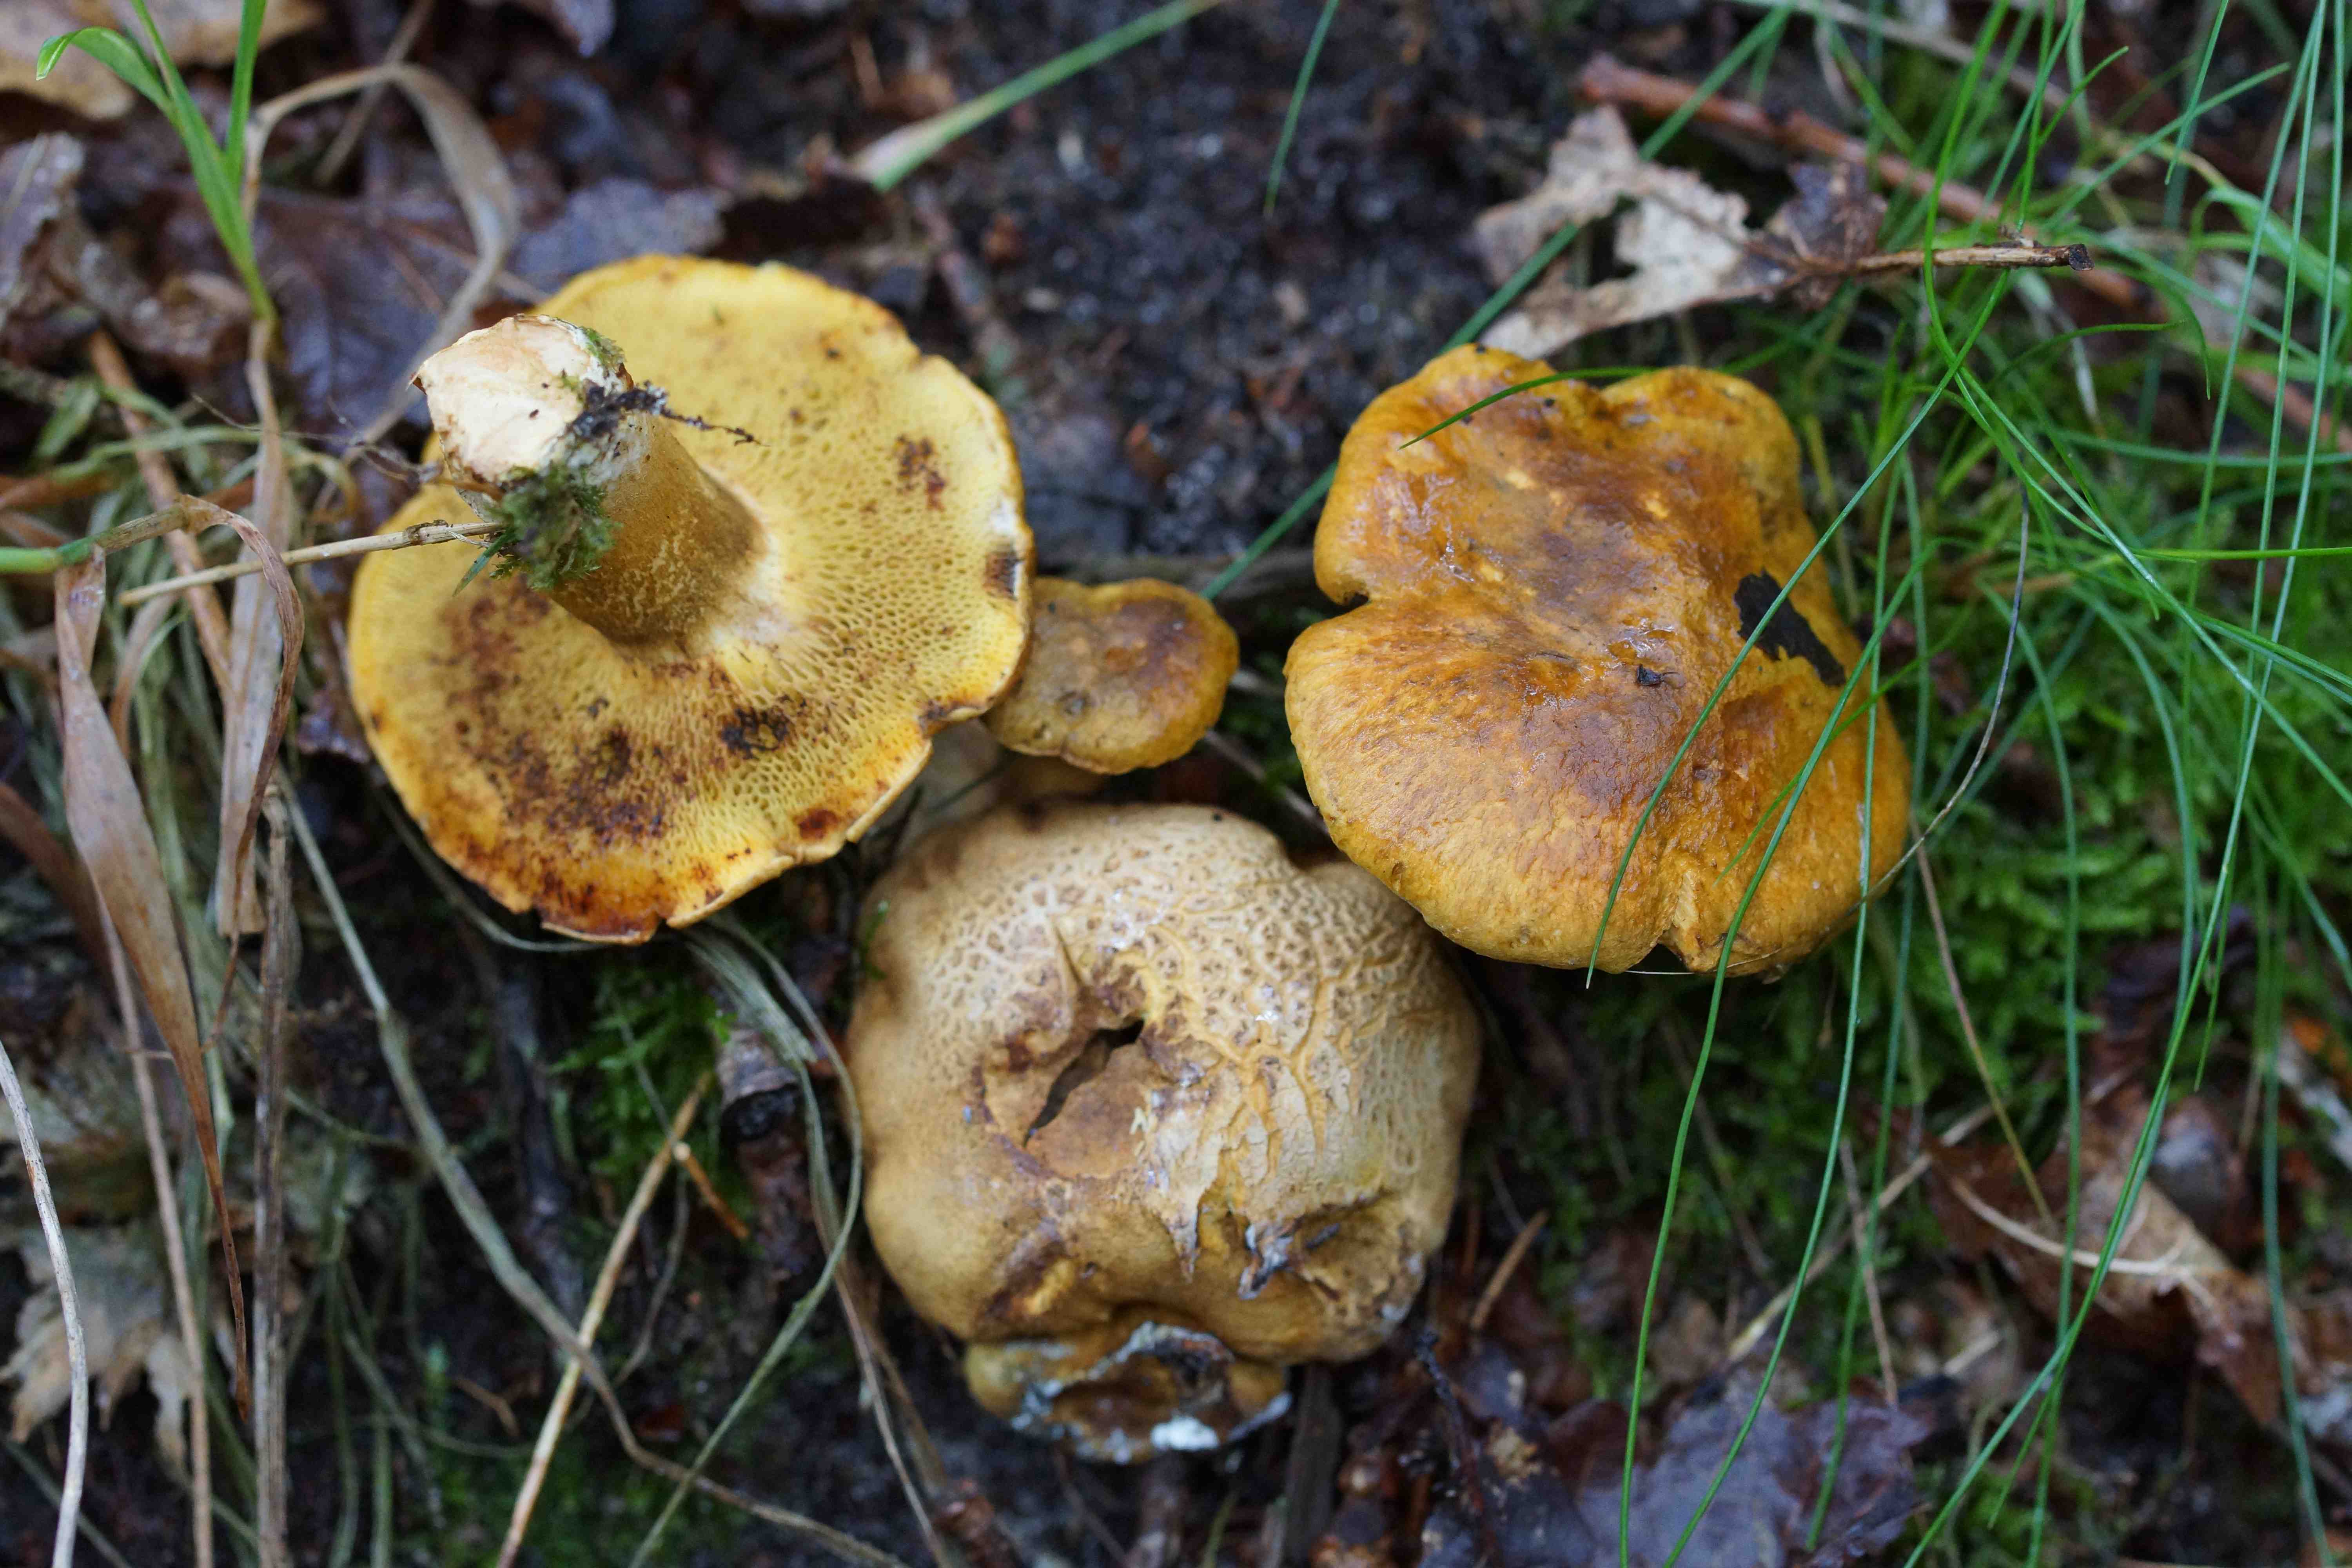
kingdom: Fungi
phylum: Basidiomycota
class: Agaricomycetes
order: Boletales
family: Boletaceae
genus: Pseudoboletus
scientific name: Pseudoboletus parasiticus
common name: snyltende rørhat
